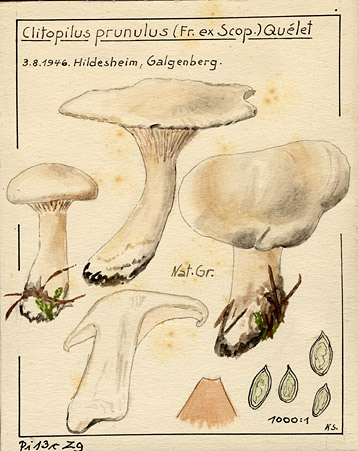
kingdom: Fungi
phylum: Basidiomycota
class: Agaricomycetes
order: Agaricales
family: Entolomataceae
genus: Clitopilus
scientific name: Clitopilus prunulus
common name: The miller
